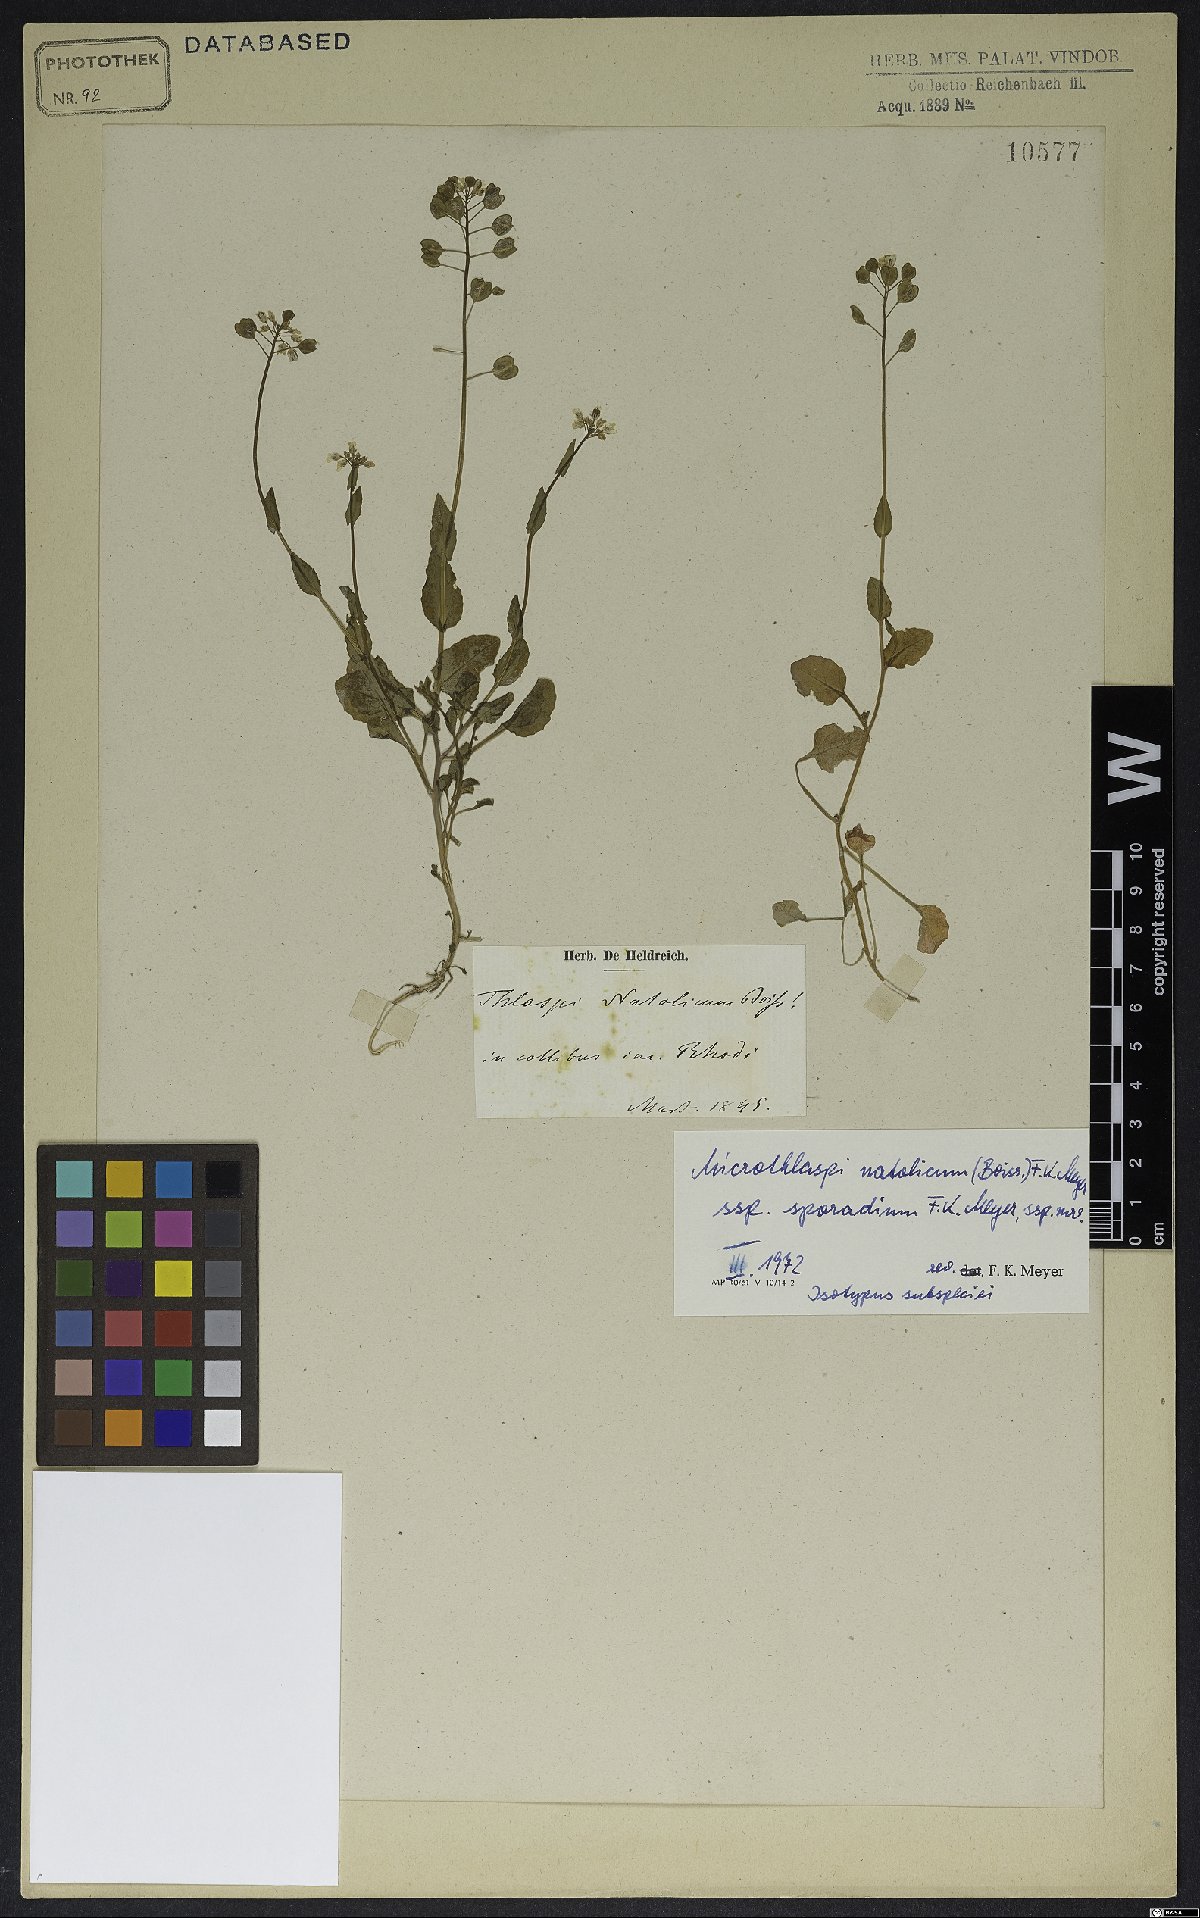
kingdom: Plantae
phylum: Tracheophyta
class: Magnoliopsida
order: Brassicales
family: Brassicaceae
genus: Noccaea
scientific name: Noccaea natolica
